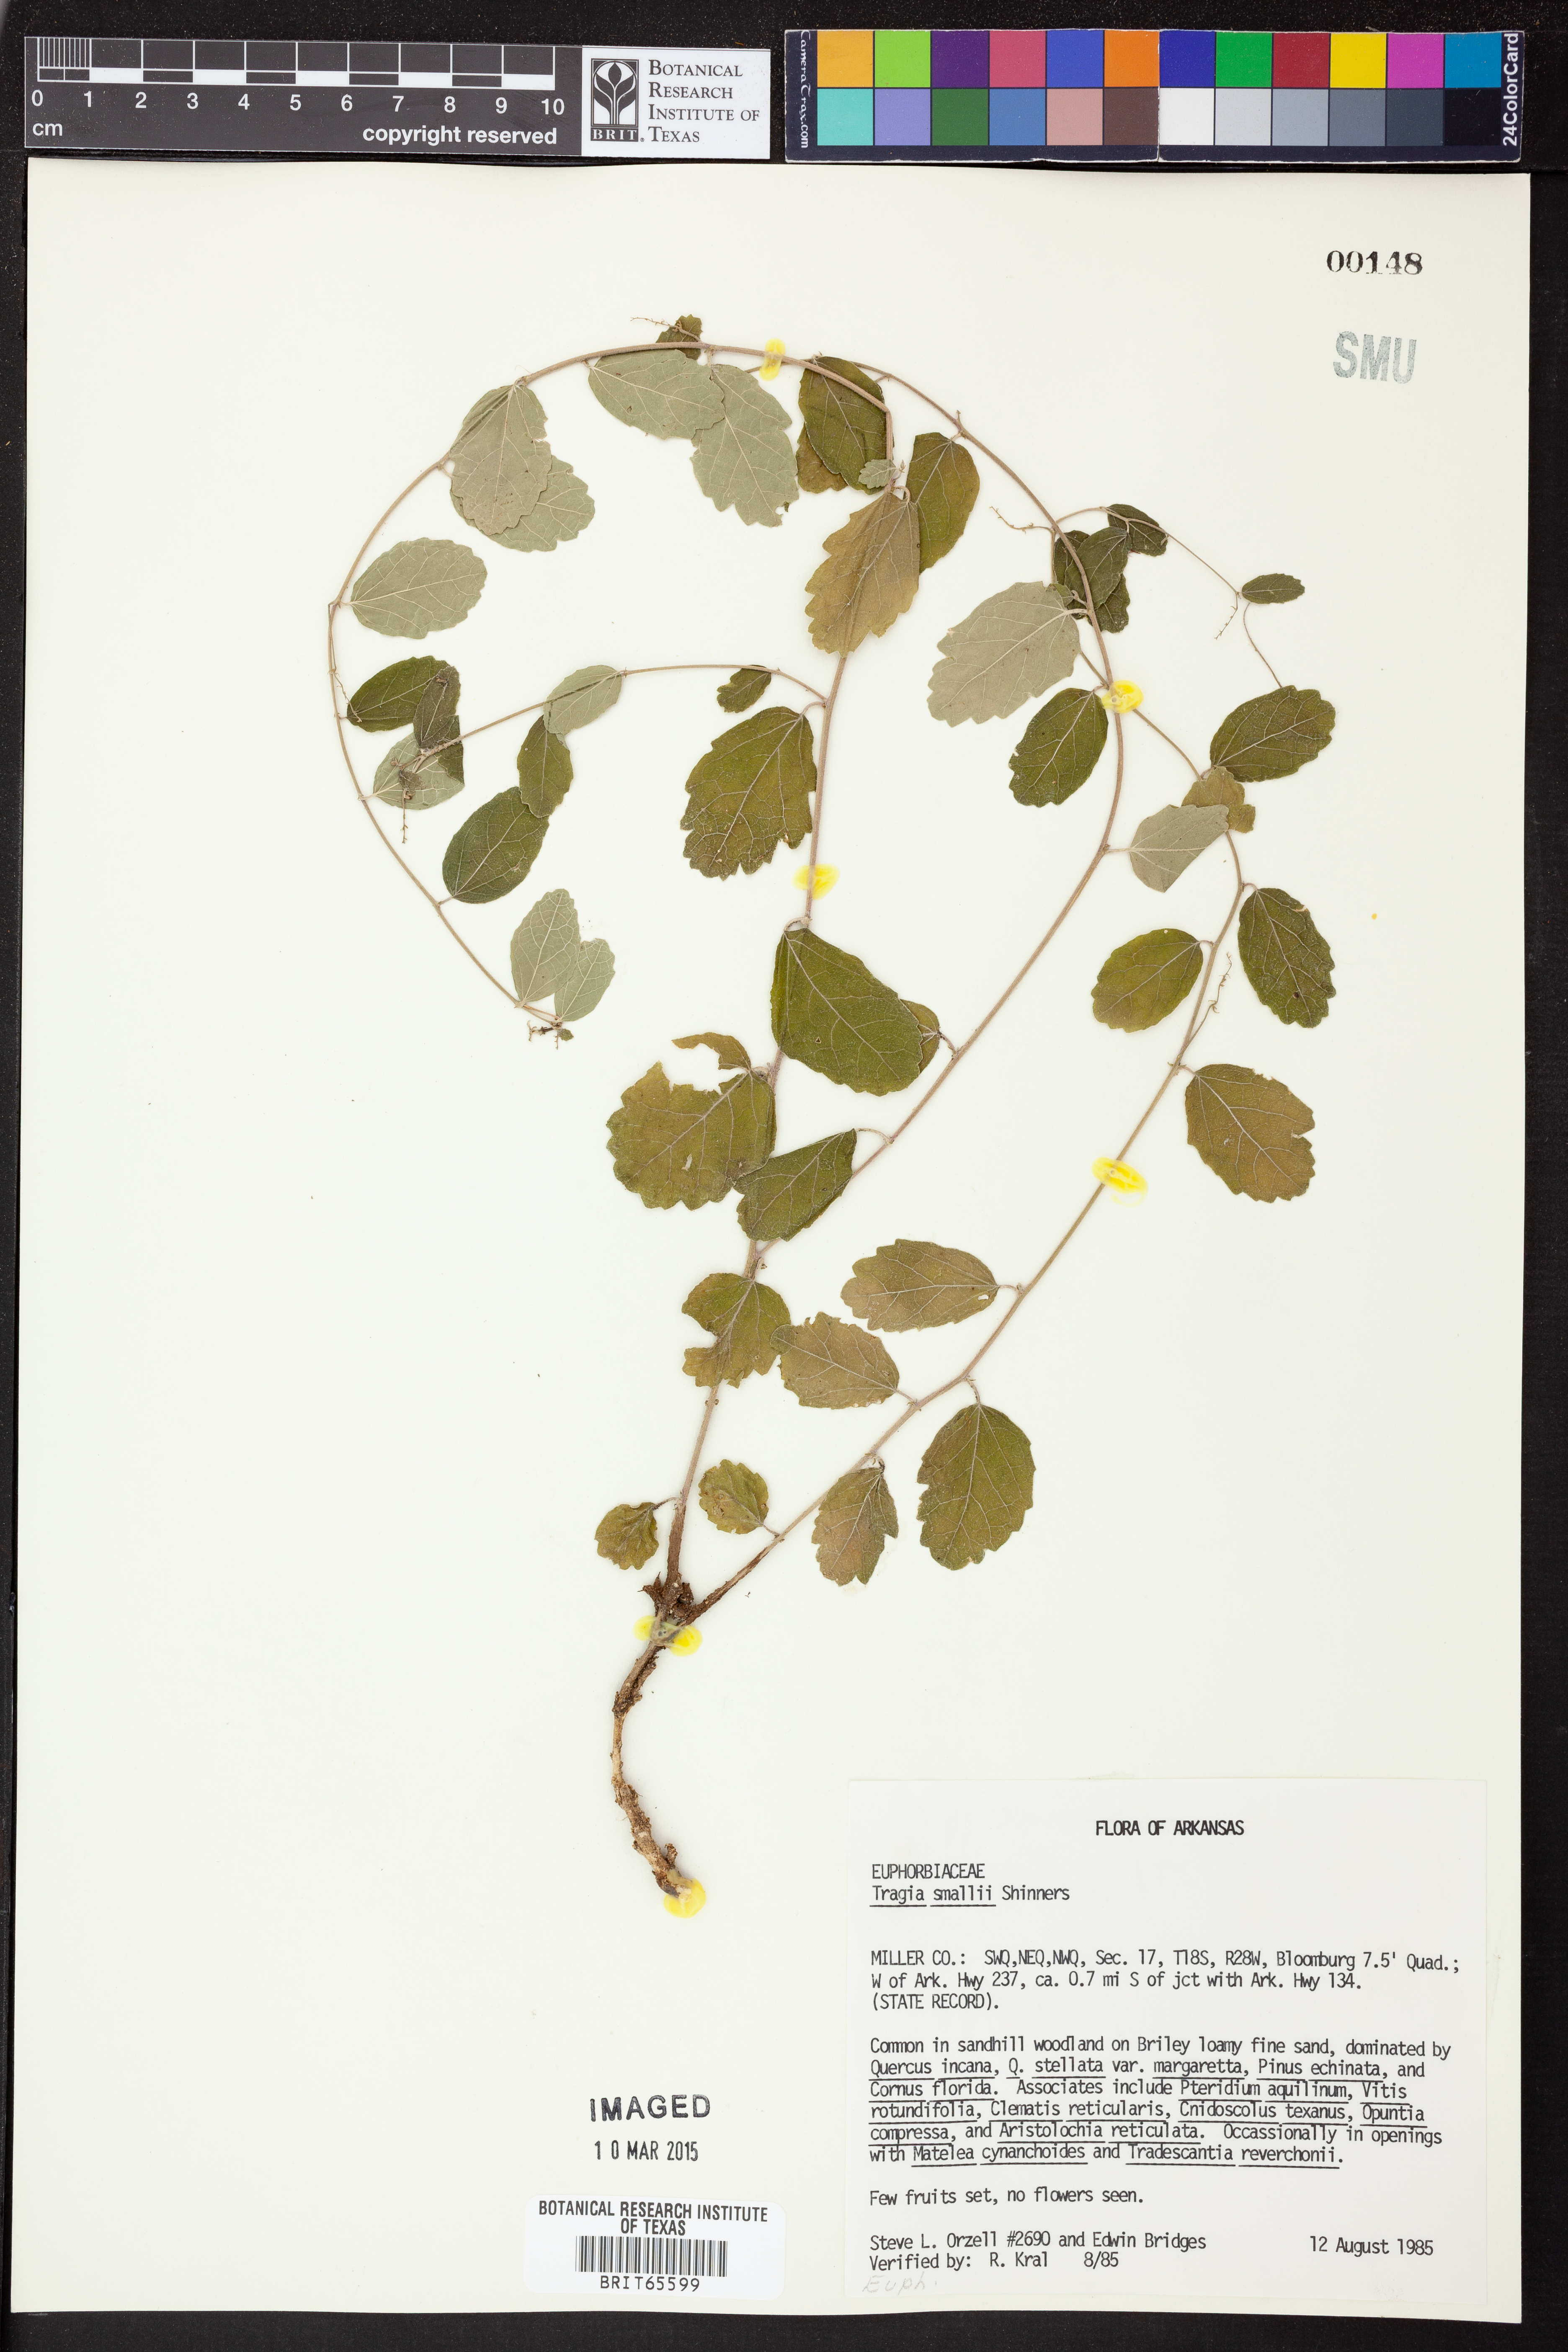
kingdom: Plantae
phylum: Tracheophyta
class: Magnoliopsida
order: Malpighiales
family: Euphorbiaceae
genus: Tragia
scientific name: Tragia smallii
